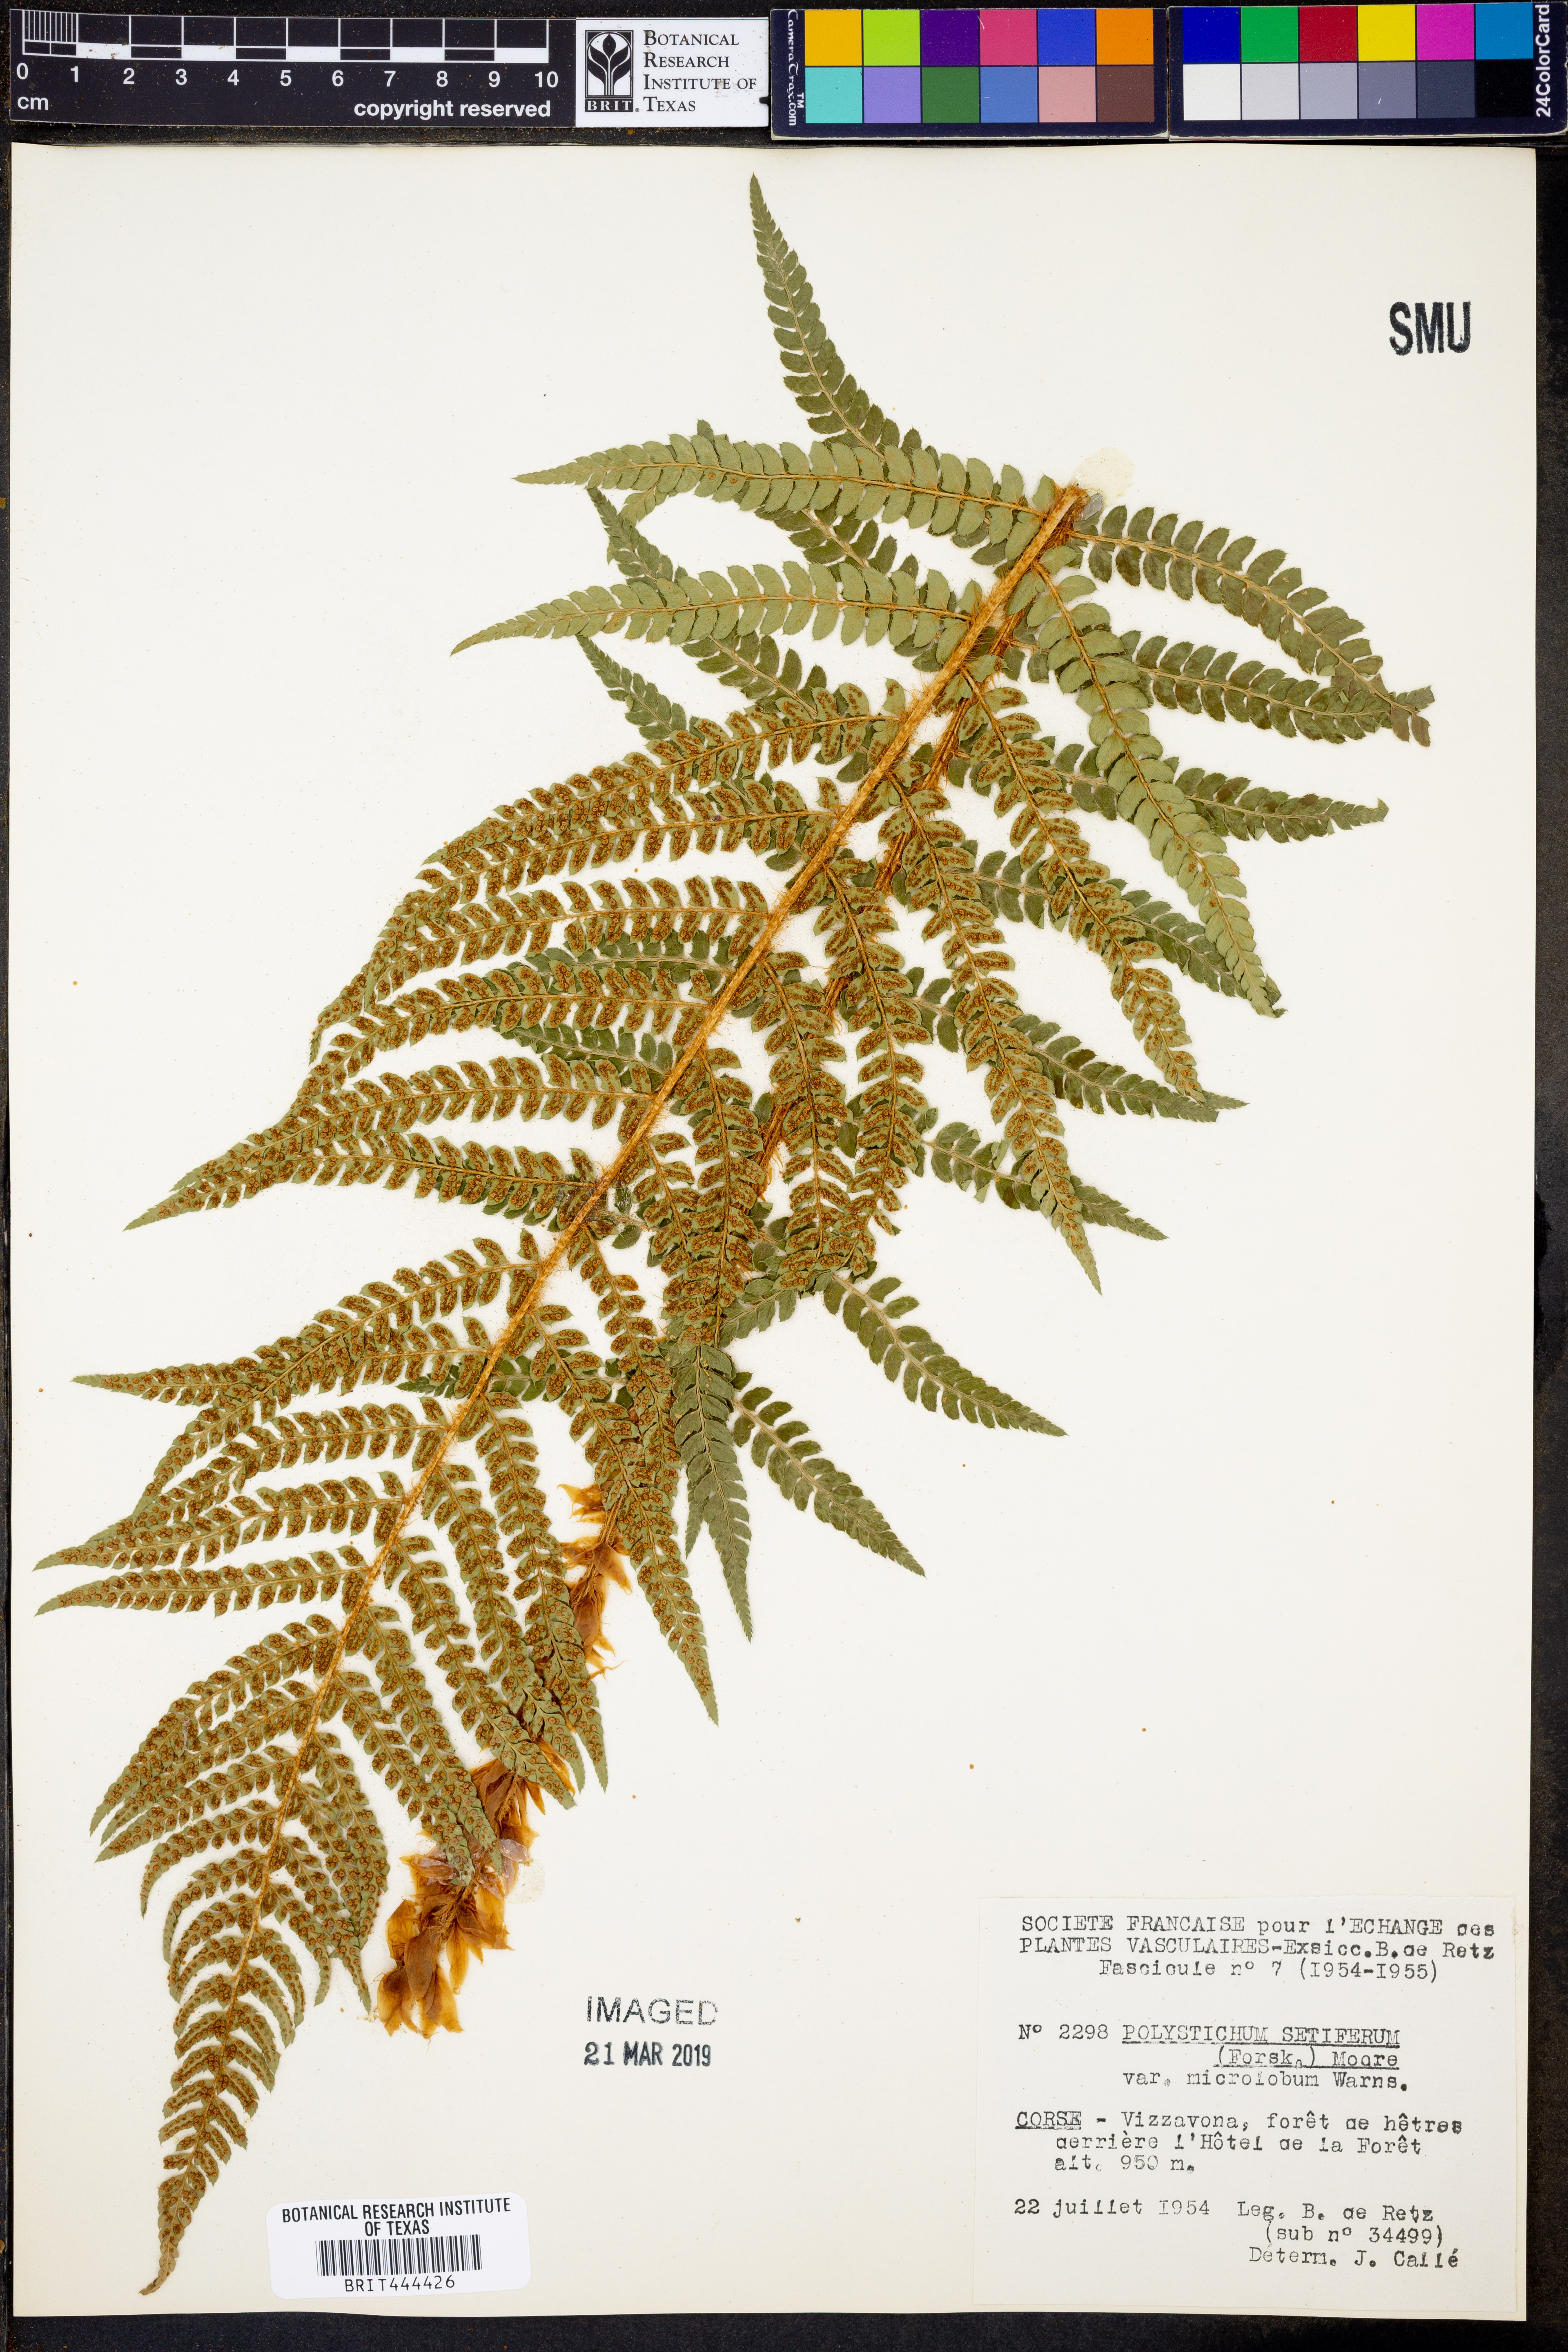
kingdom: Plantae
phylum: Tracheophyta
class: Polypodiopsida
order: Polypodiales
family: Dryopteridaceae
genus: Polystichum
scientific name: Polystichum setiferum
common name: Soft shield-fern
